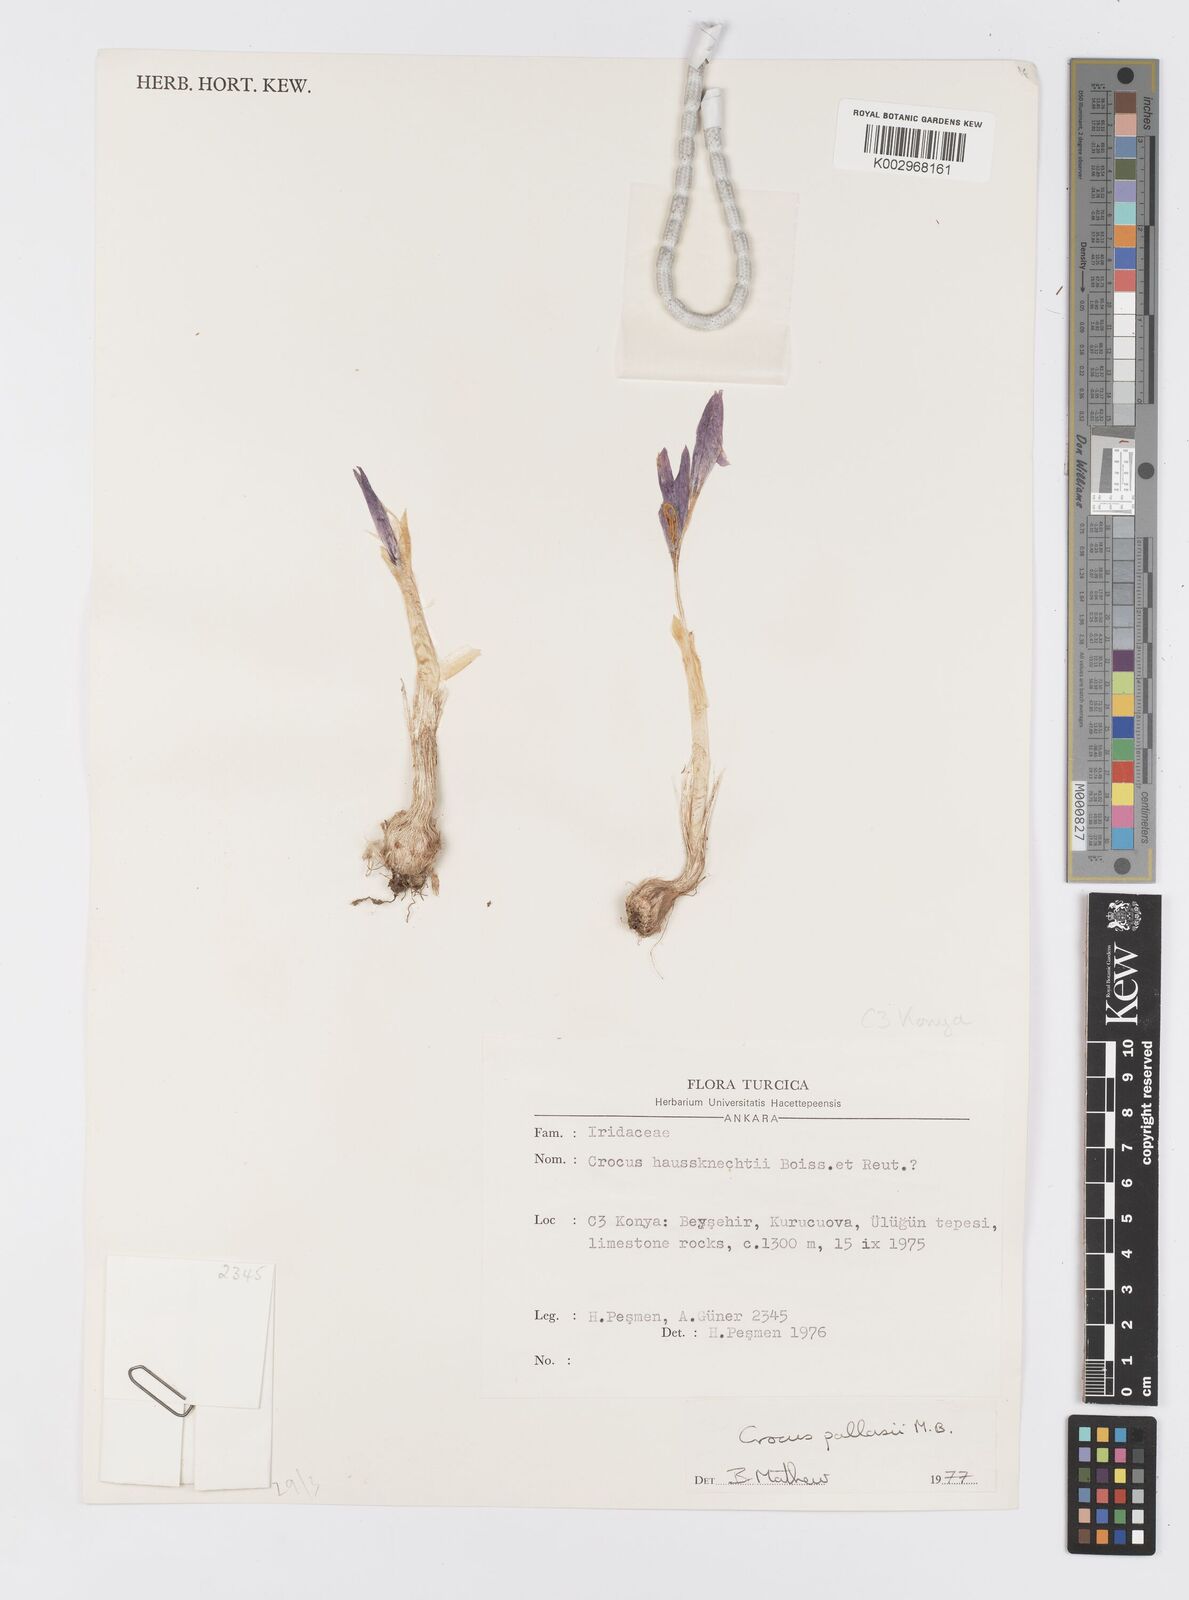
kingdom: Plantae
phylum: Tracheophyta
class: Liliopsida
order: Asparagales
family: Iridaceae
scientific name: Iridaceae
